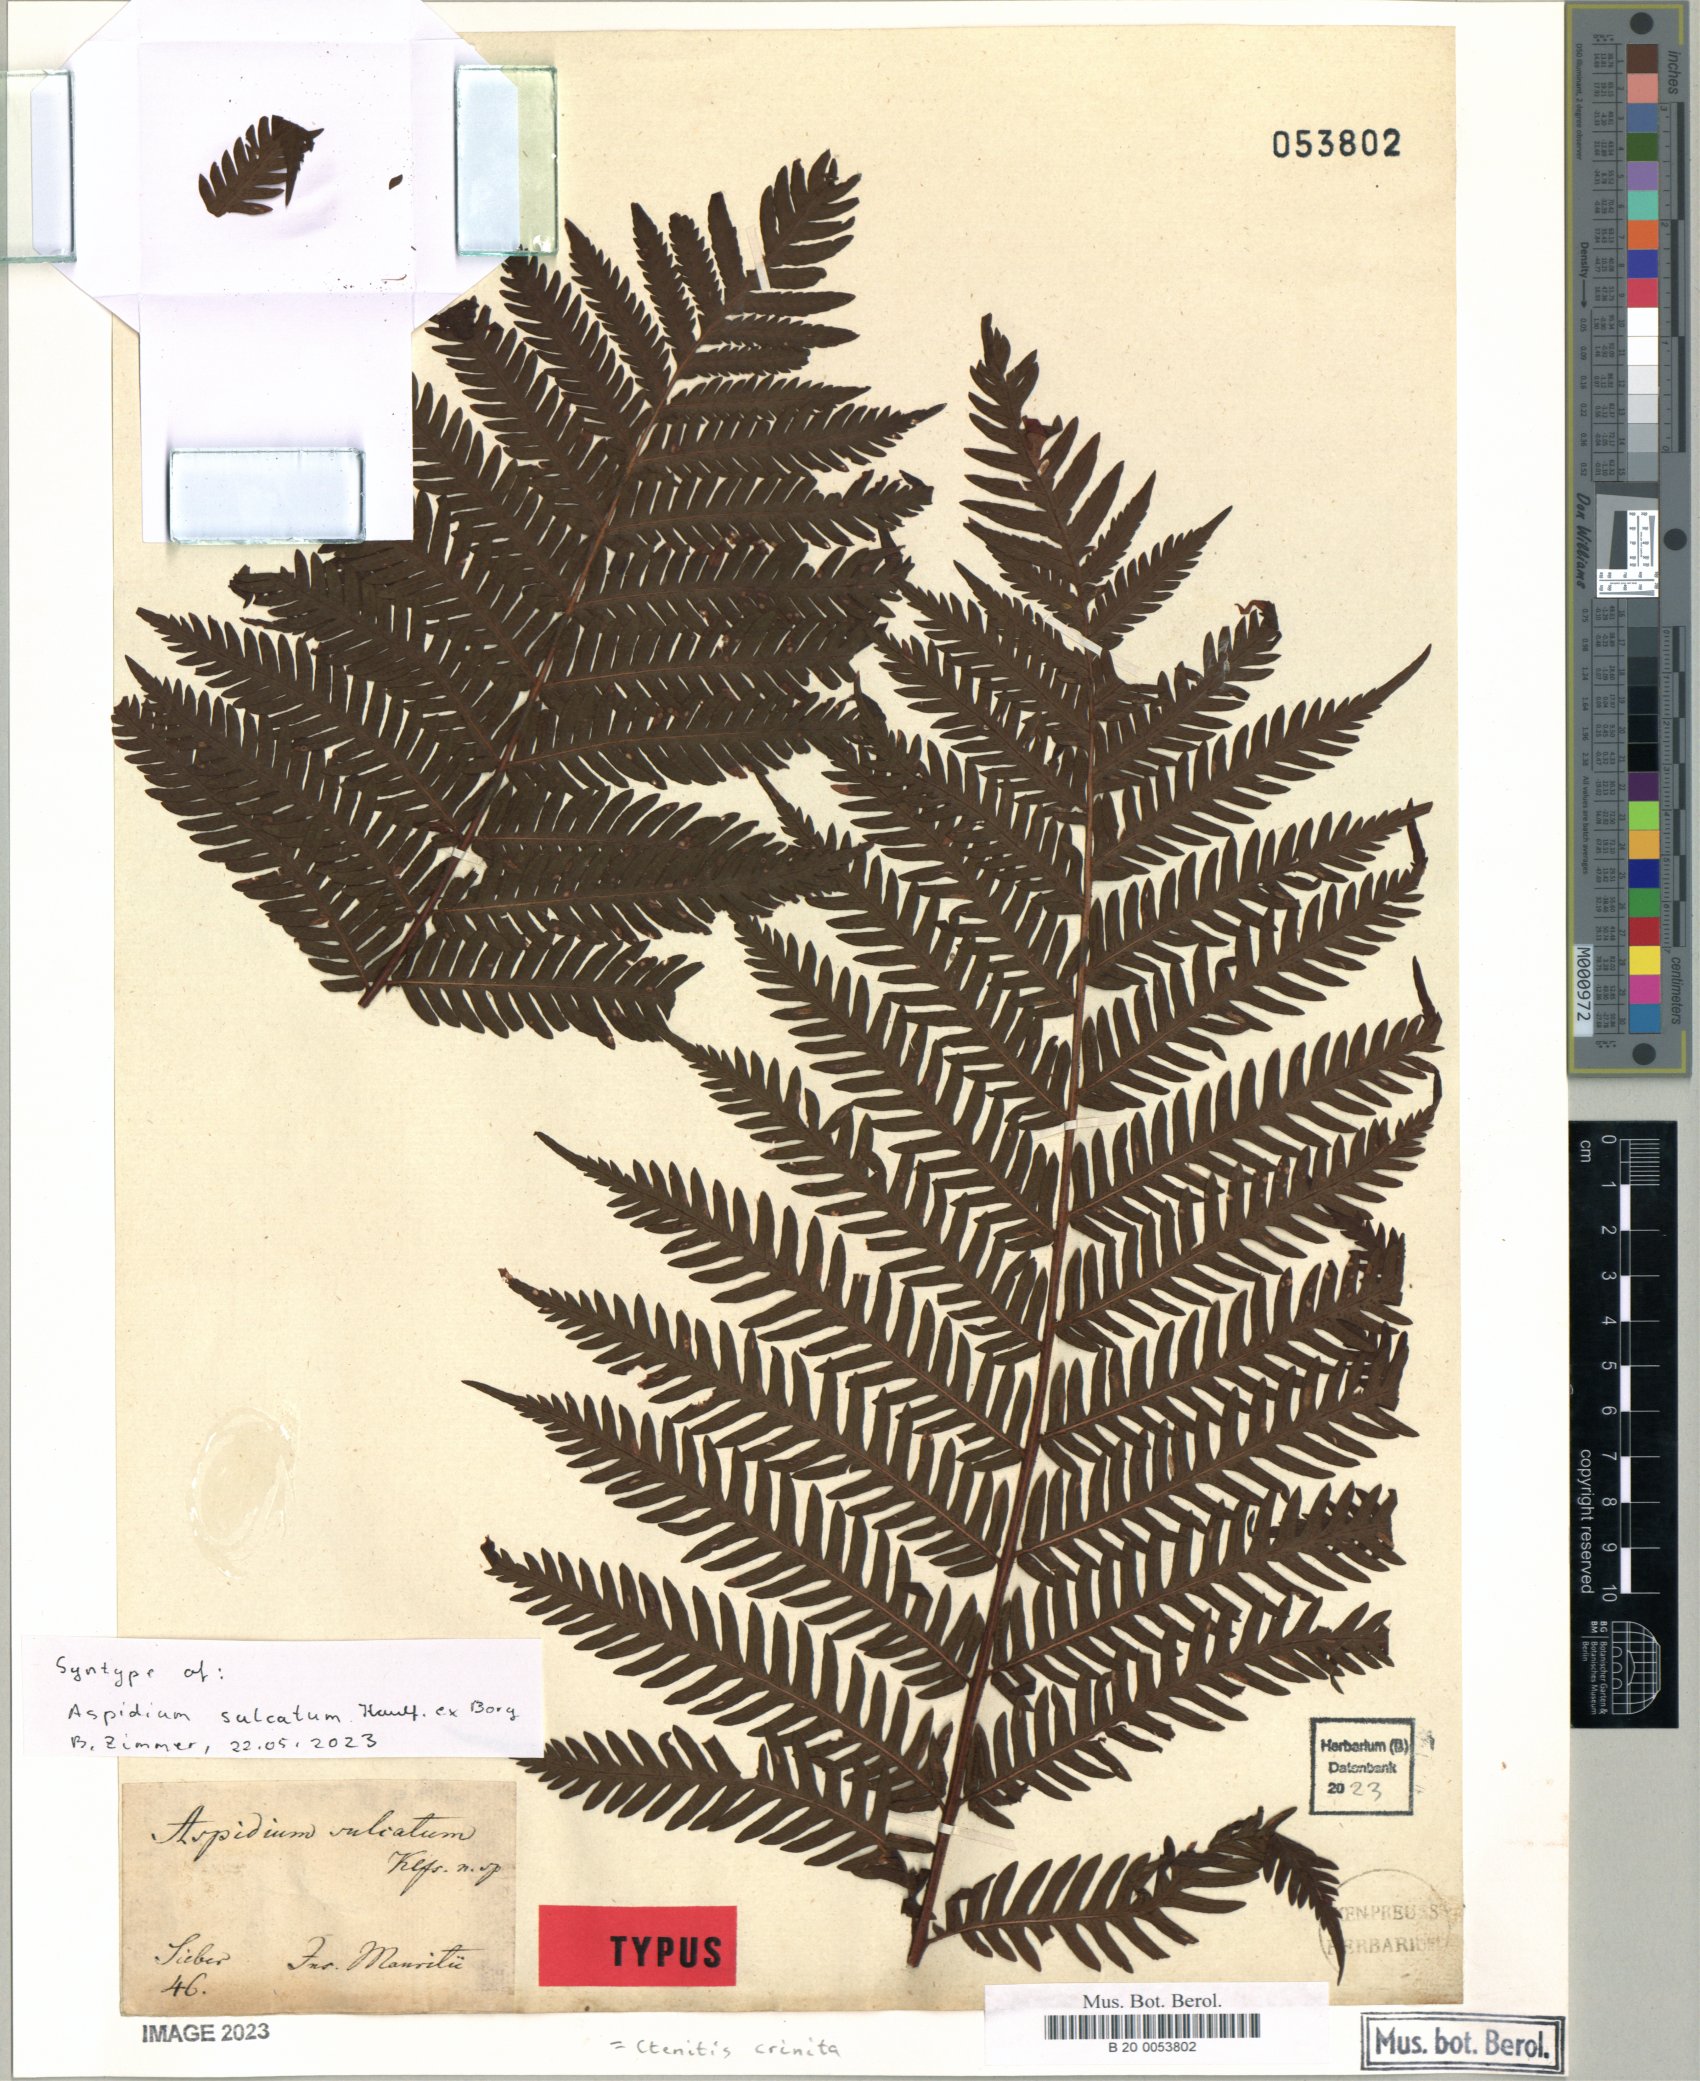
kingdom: Plantae
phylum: Tracheophyta
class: Polypodiopsida
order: Polypodiales
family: Dryopteridaceae
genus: Ctenitis
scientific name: Ctenitis crinita
